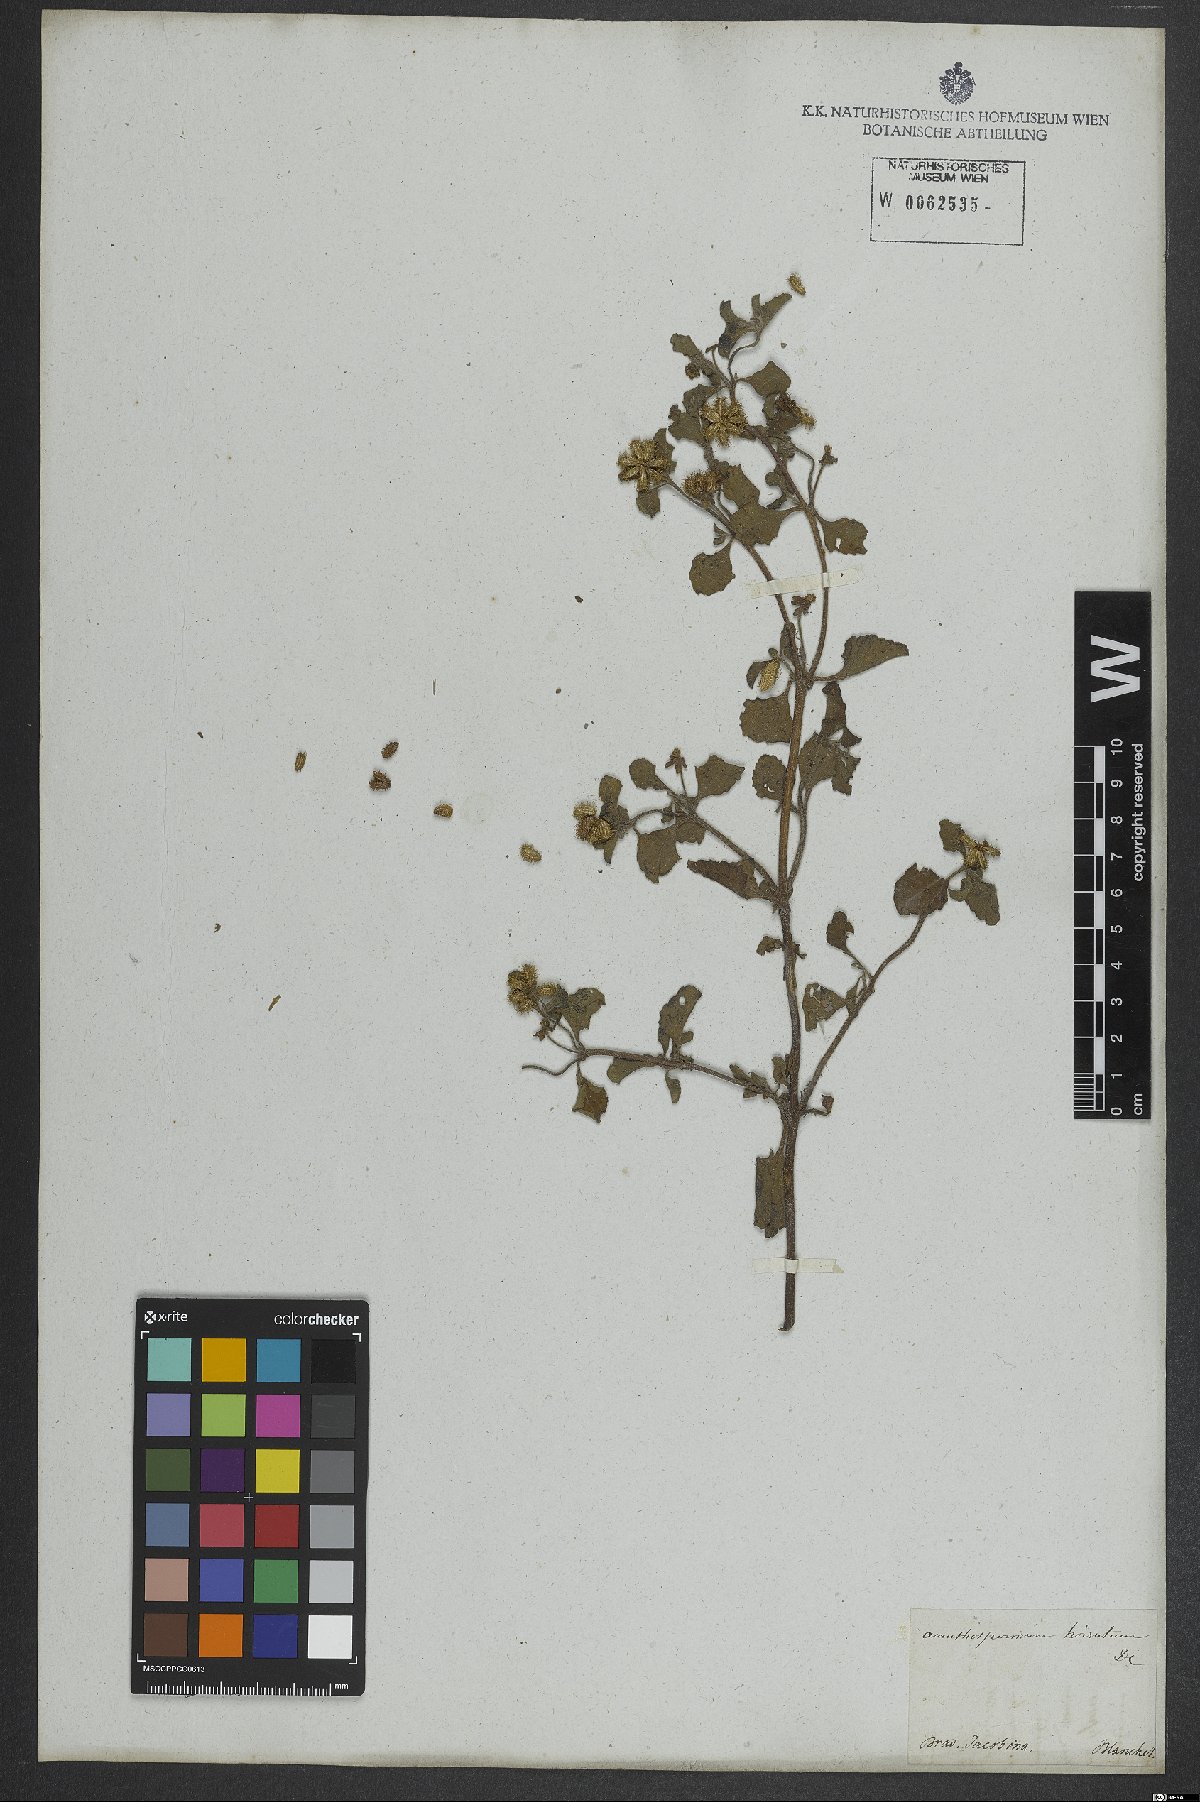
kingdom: Plantae
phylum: Tracheophyta
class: Magnoliopsida
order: Asterales
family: Asteraceae
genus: Acanthospermum
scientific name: Acanthospermum australe
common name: Paraguayan starbur
